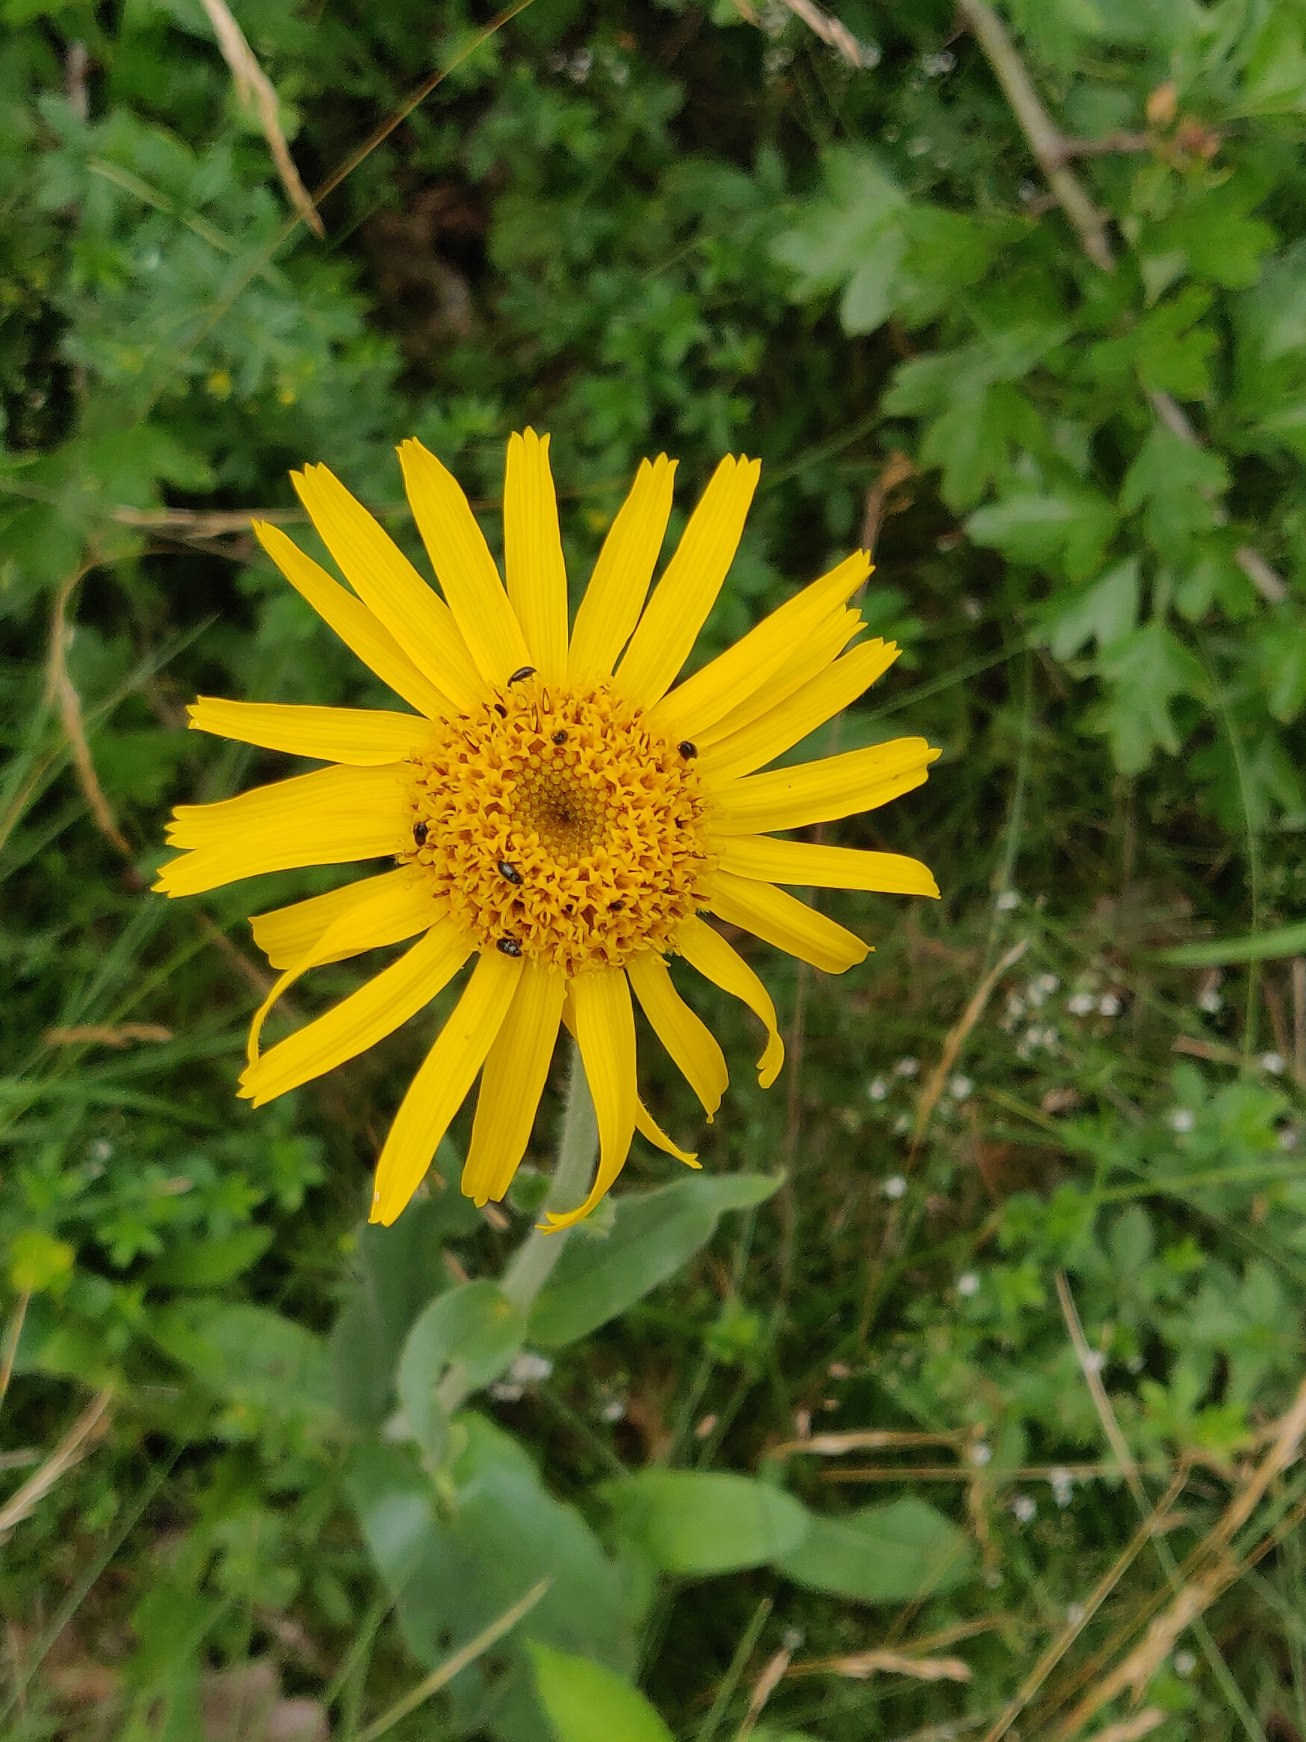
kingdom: Plantae
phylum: Tracheophyta
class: Magnoliopsida
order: Asterales
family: Asteraceae
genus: Arnica
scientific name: Arnica montana
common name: Guldblomme
